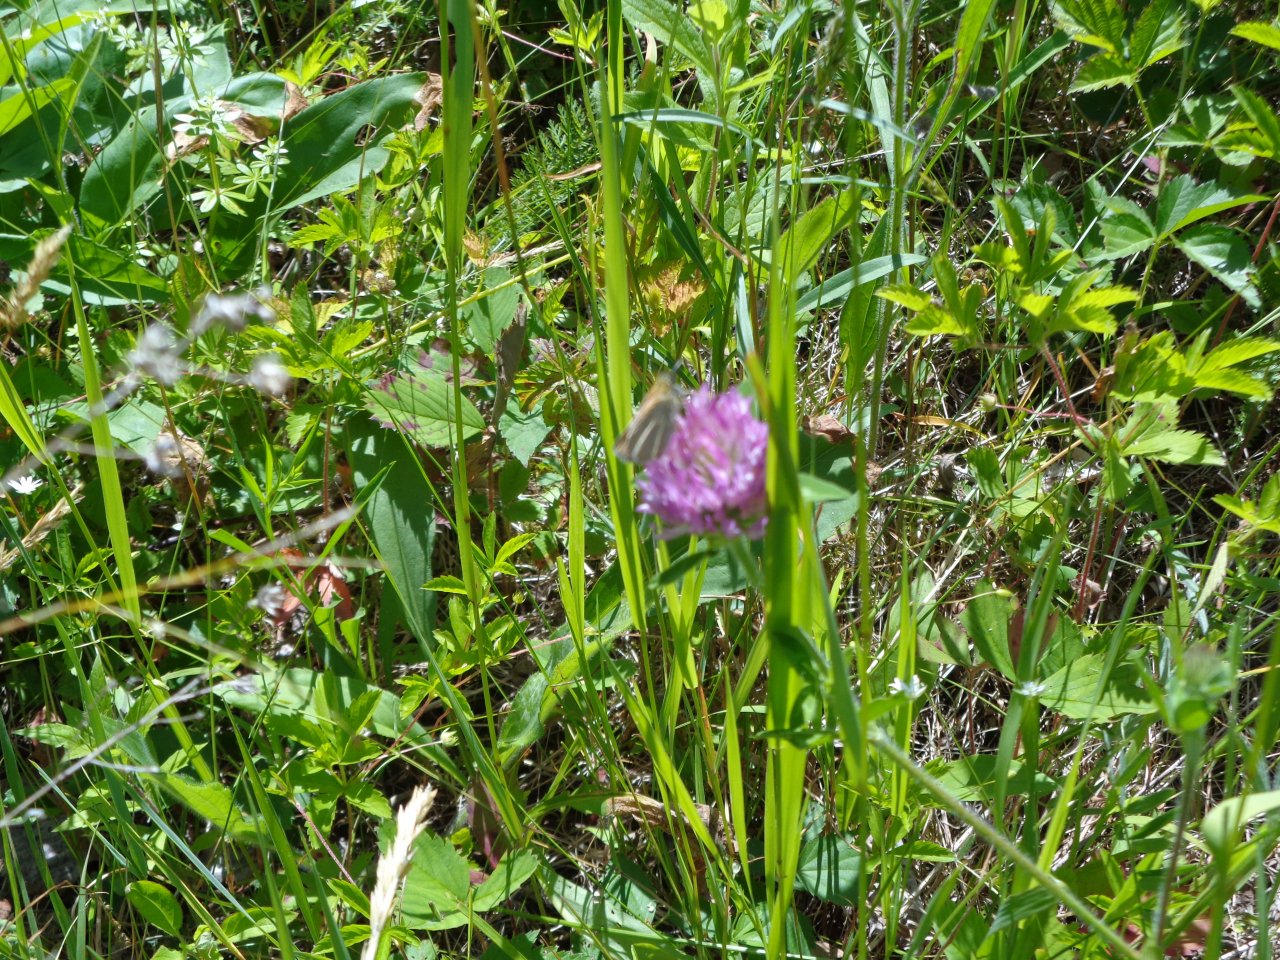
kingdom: Animalia
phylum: Arthropoda
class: Insecta
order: Lepidoptera
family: Hesperiidae
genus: Thymelicus
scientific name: Thymelicus lineola
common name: European Skipper
